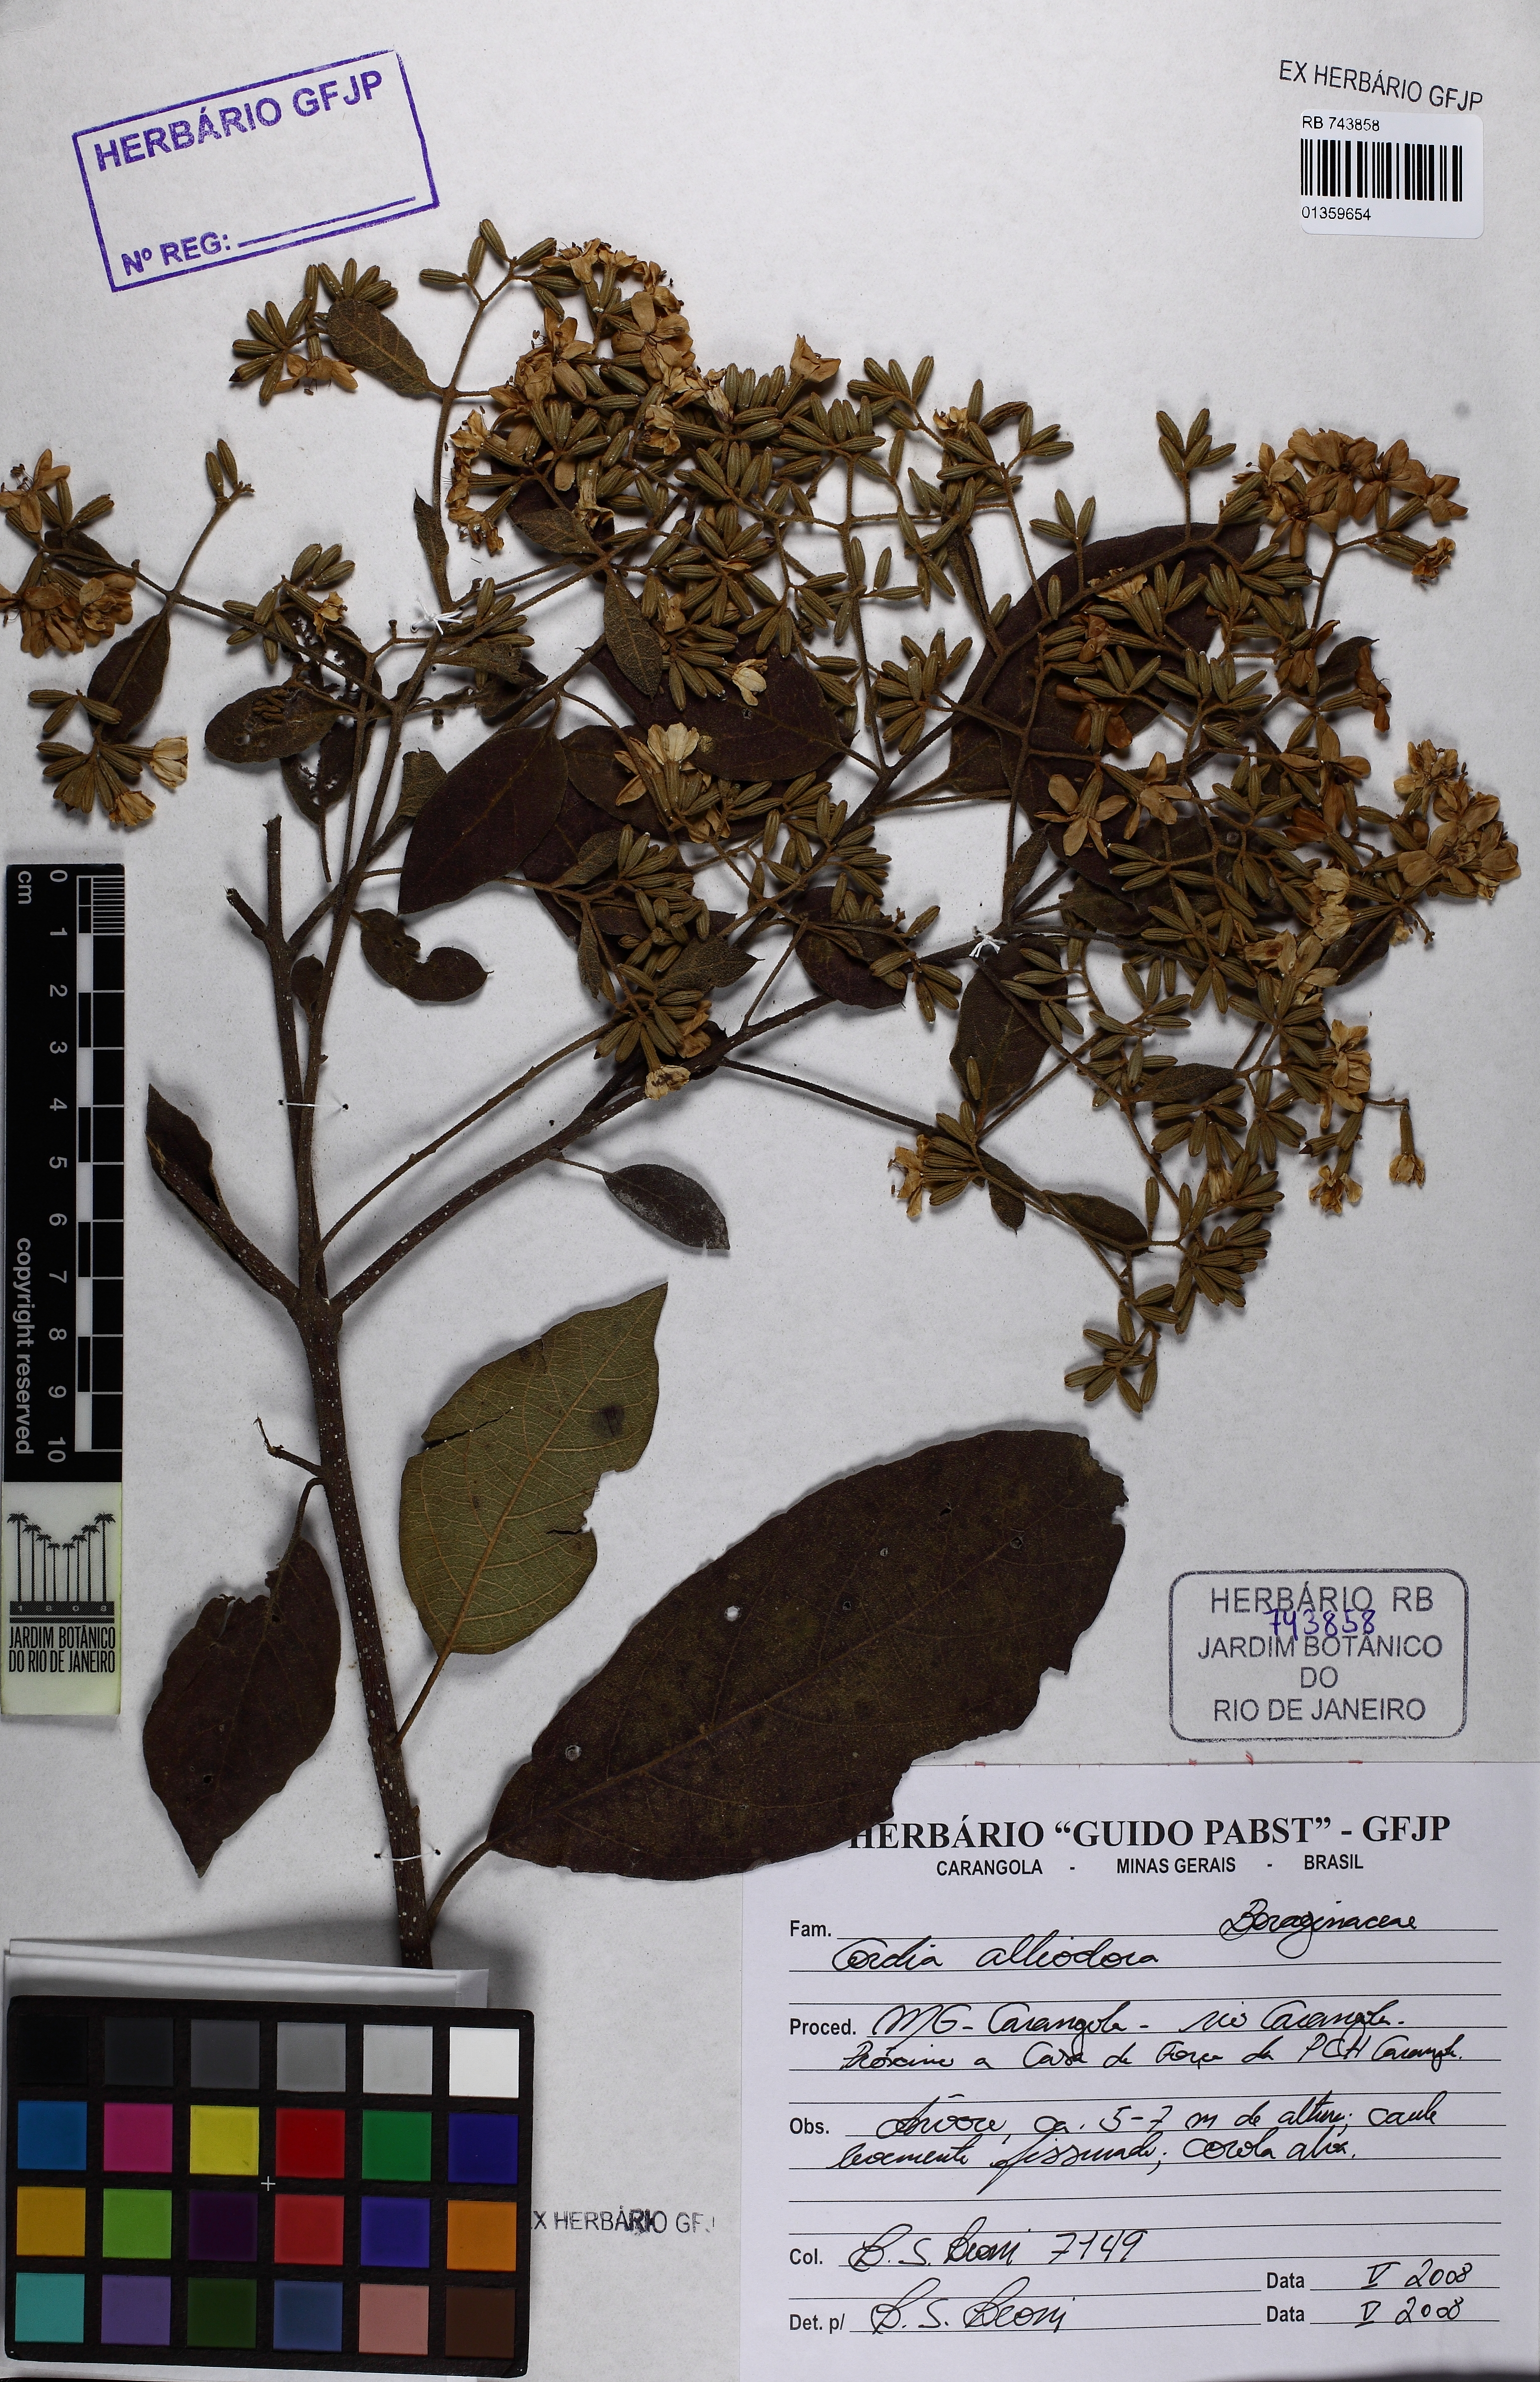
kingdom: Plantae
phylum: Tracheophyta
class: Magnoliopsida
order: Boraginales
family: Cordiaceae
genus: Cordia
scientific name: Cordia alliodora
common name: Spanish elm
